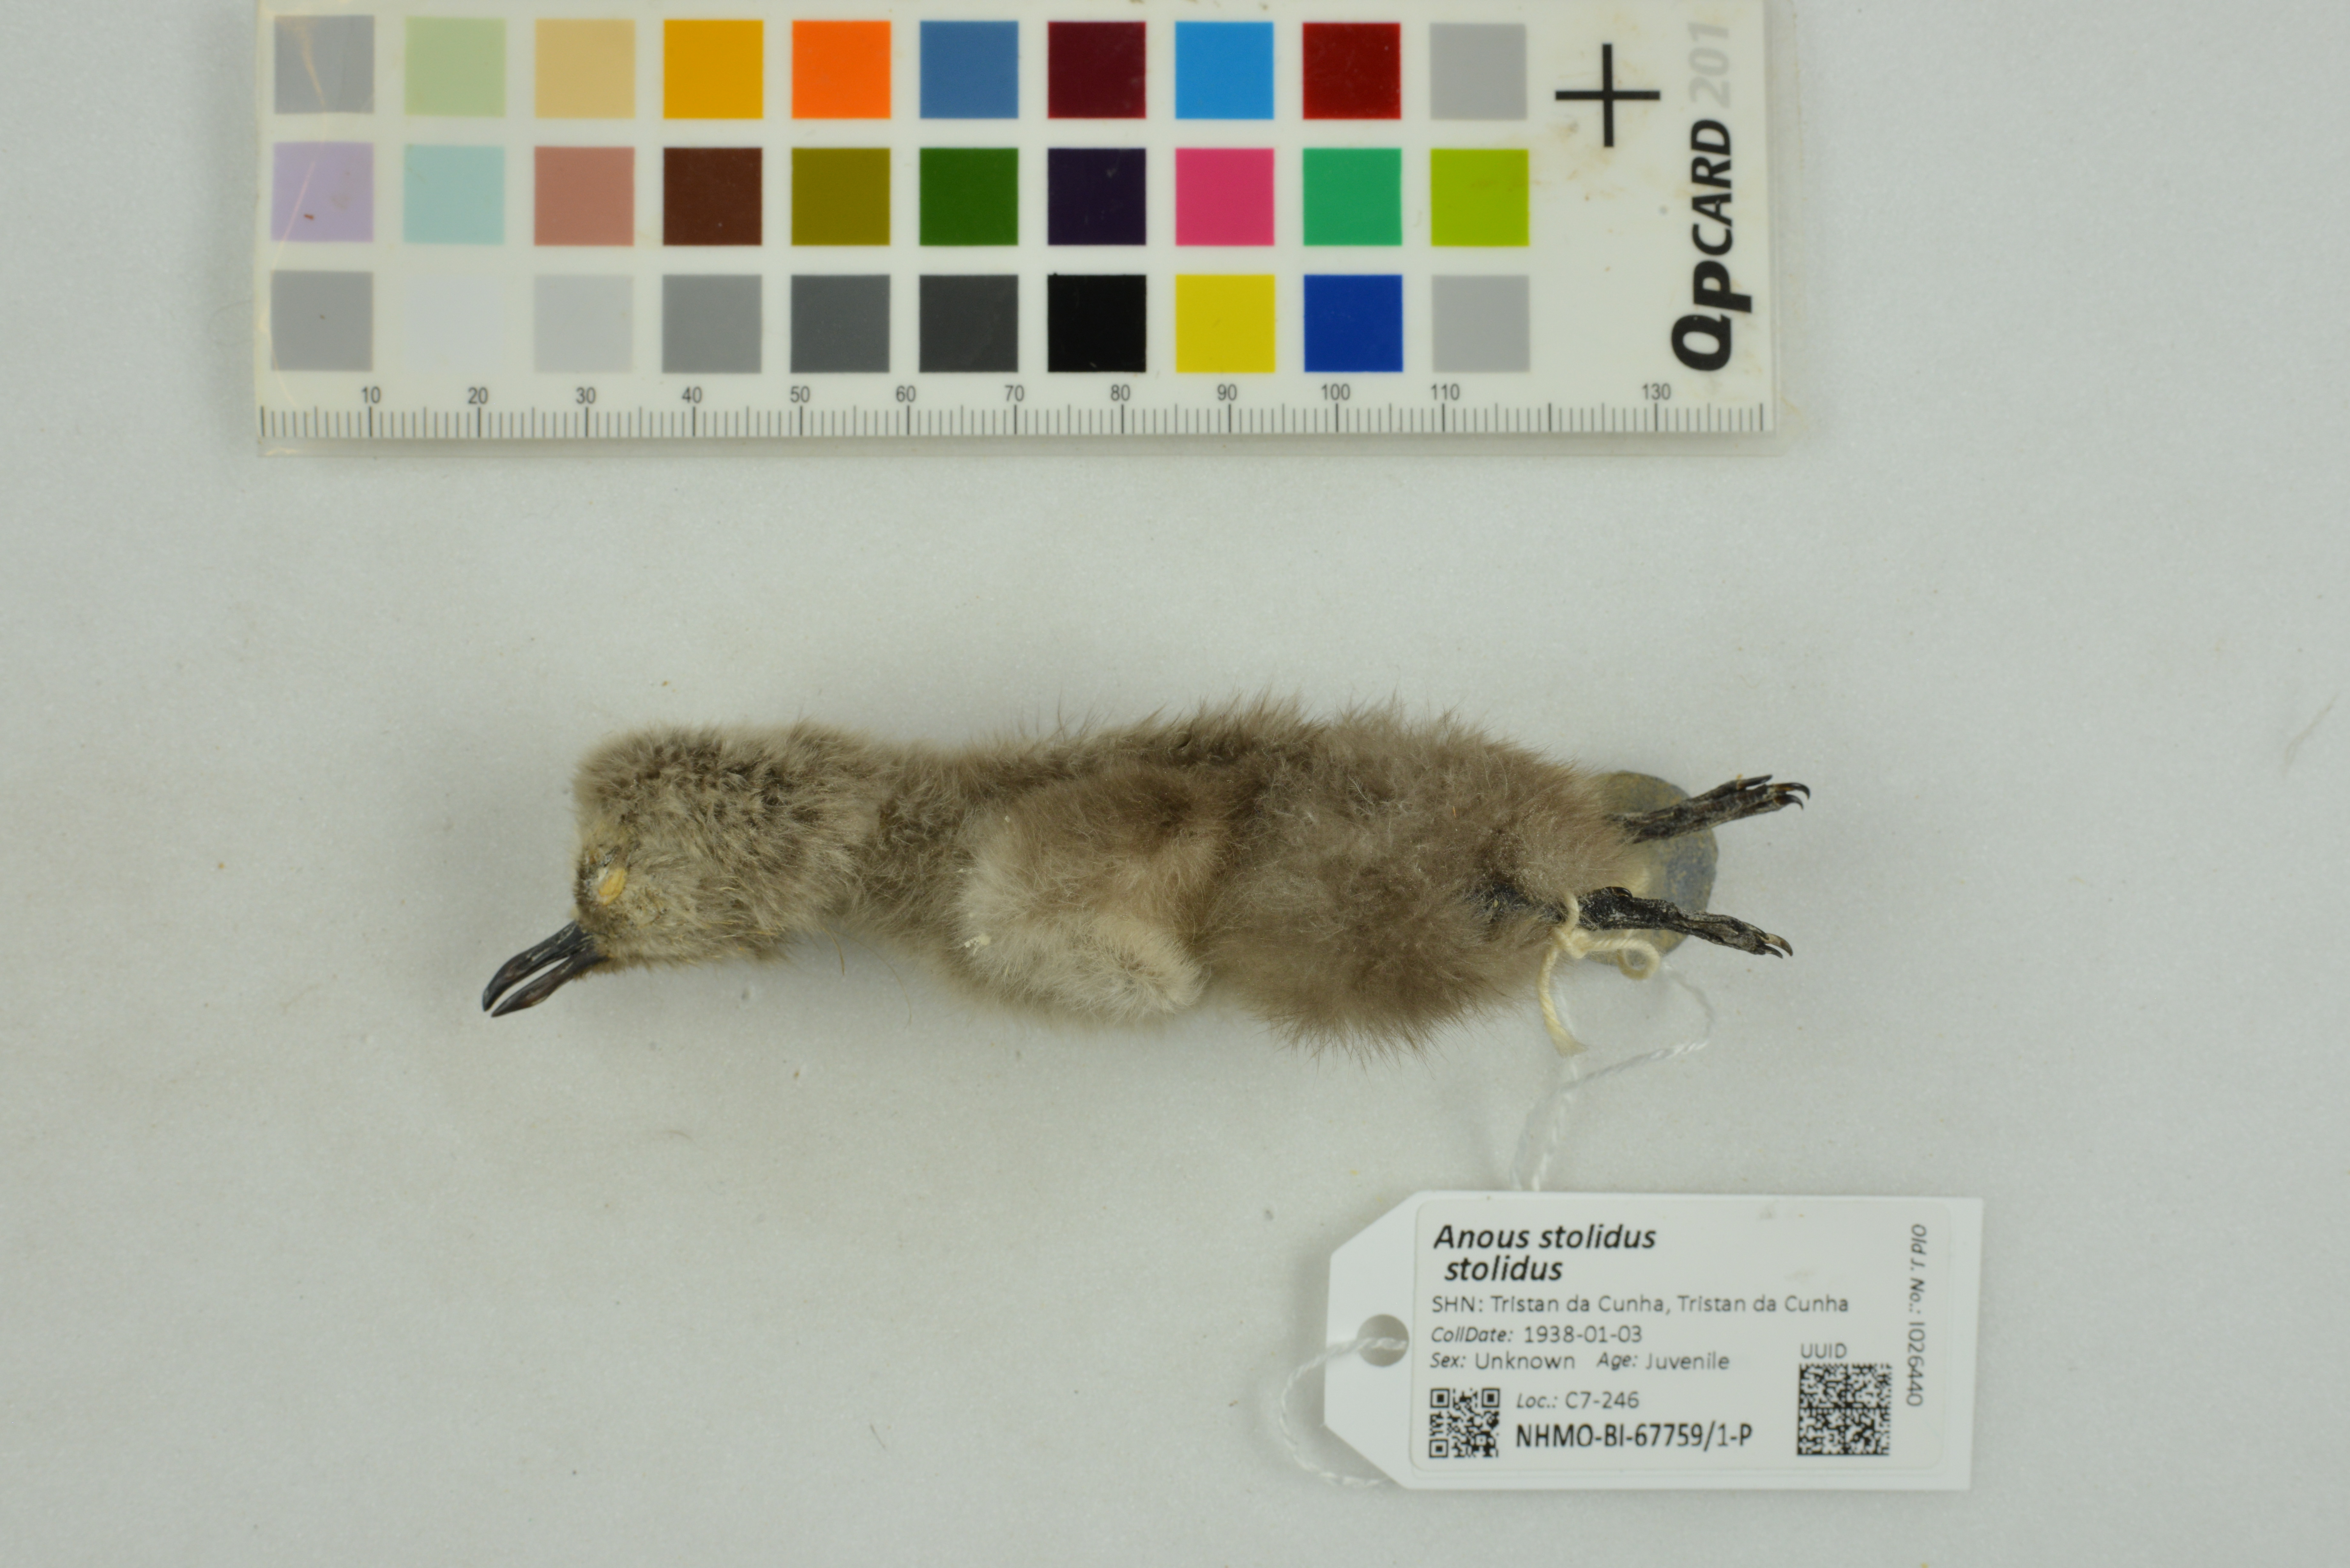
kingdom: Animalia
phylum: Chordata
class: Aves
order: Charadriiformes
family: Laridae
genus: Anous
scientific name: Anous stolidus
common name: Brown noddy
